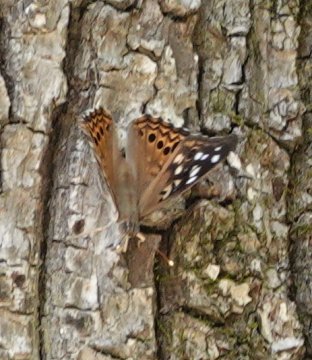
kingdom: Animalia
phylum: Arthropoda
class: Insecta
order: Lepidoptera
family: Nymphalidae
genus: Asterocampa
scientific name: Asterocampa celtis
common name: Hackberry Emperor
